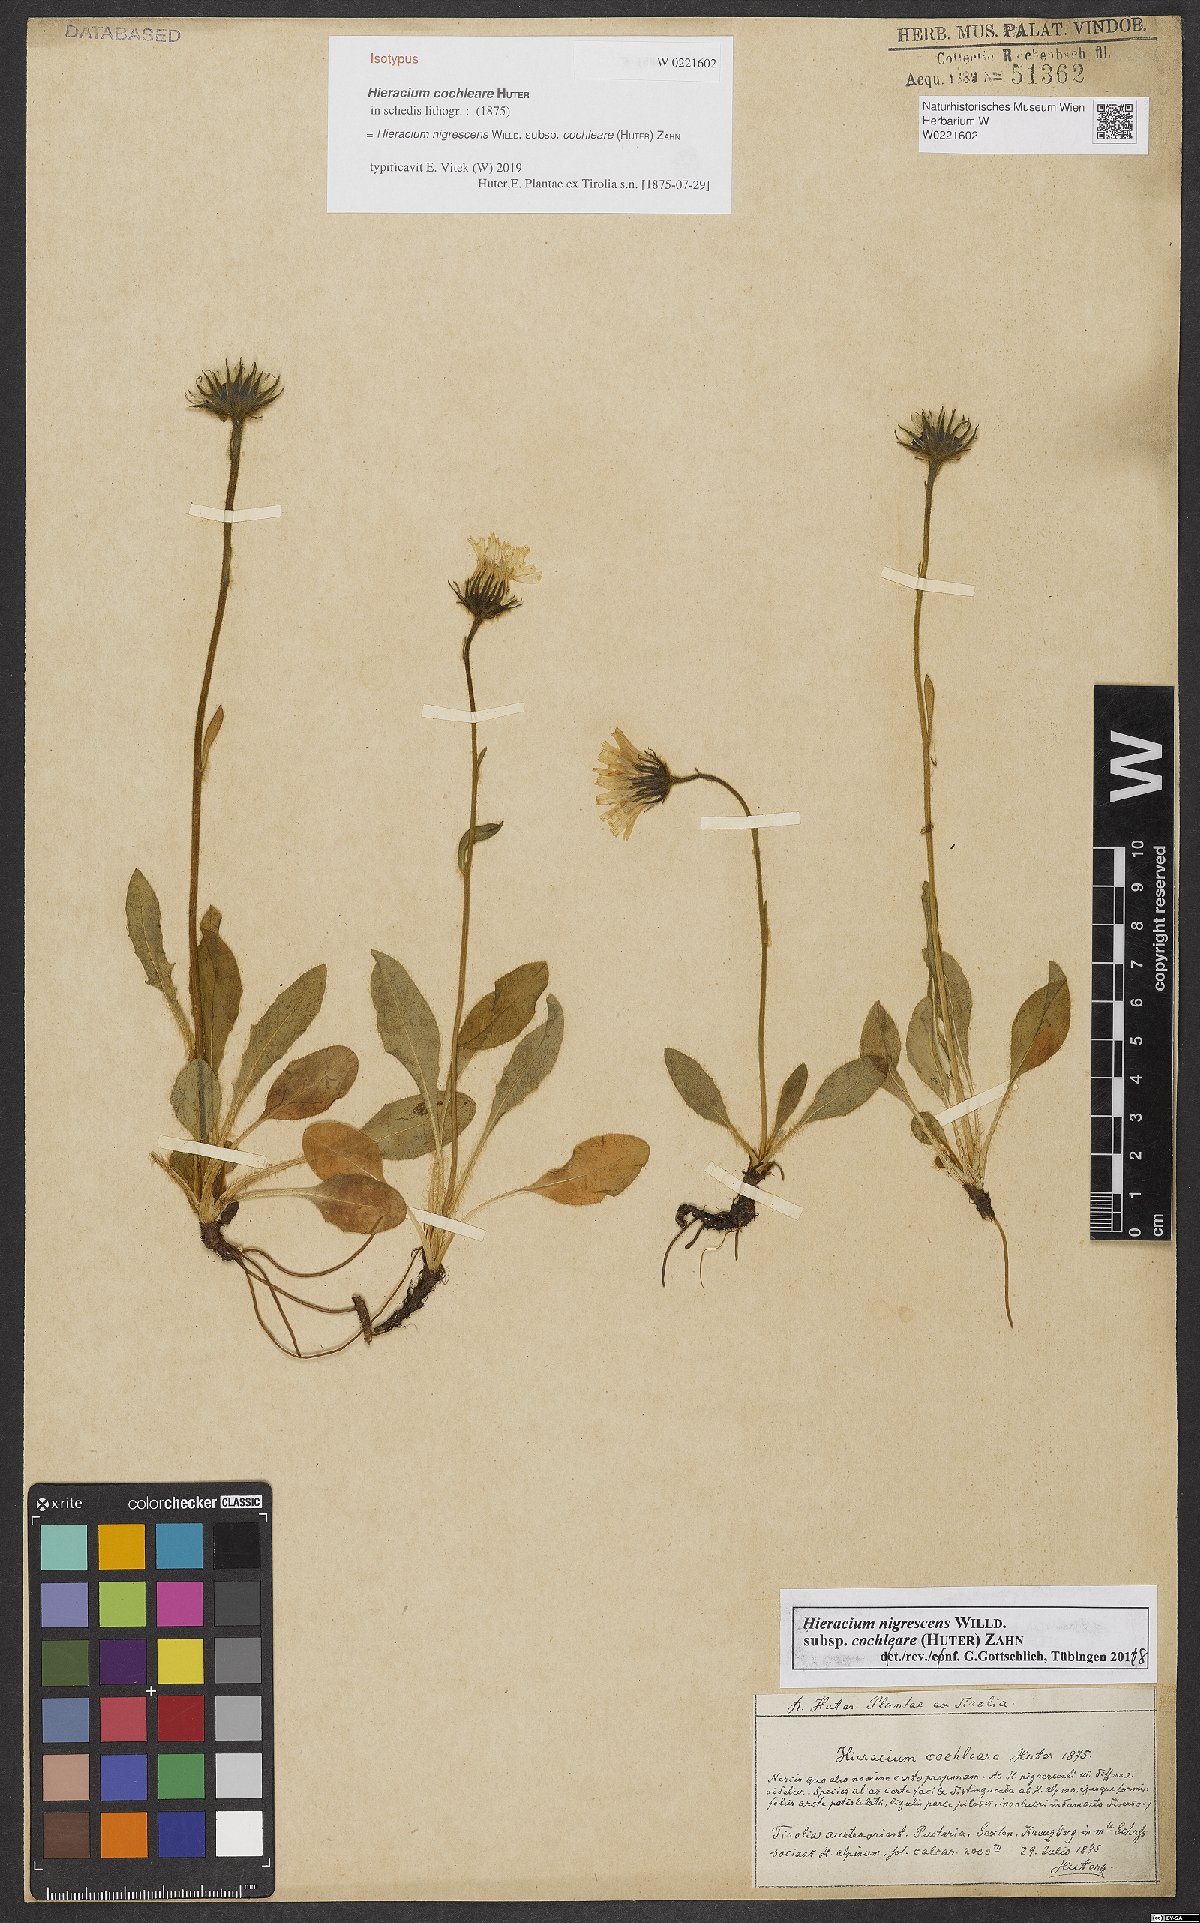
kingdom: Plantae
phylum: Tracheophyta
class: Magnoliopsida
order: Asterales
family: Asteraceae
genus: Hieracium
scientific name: Hieracium nigrescens
